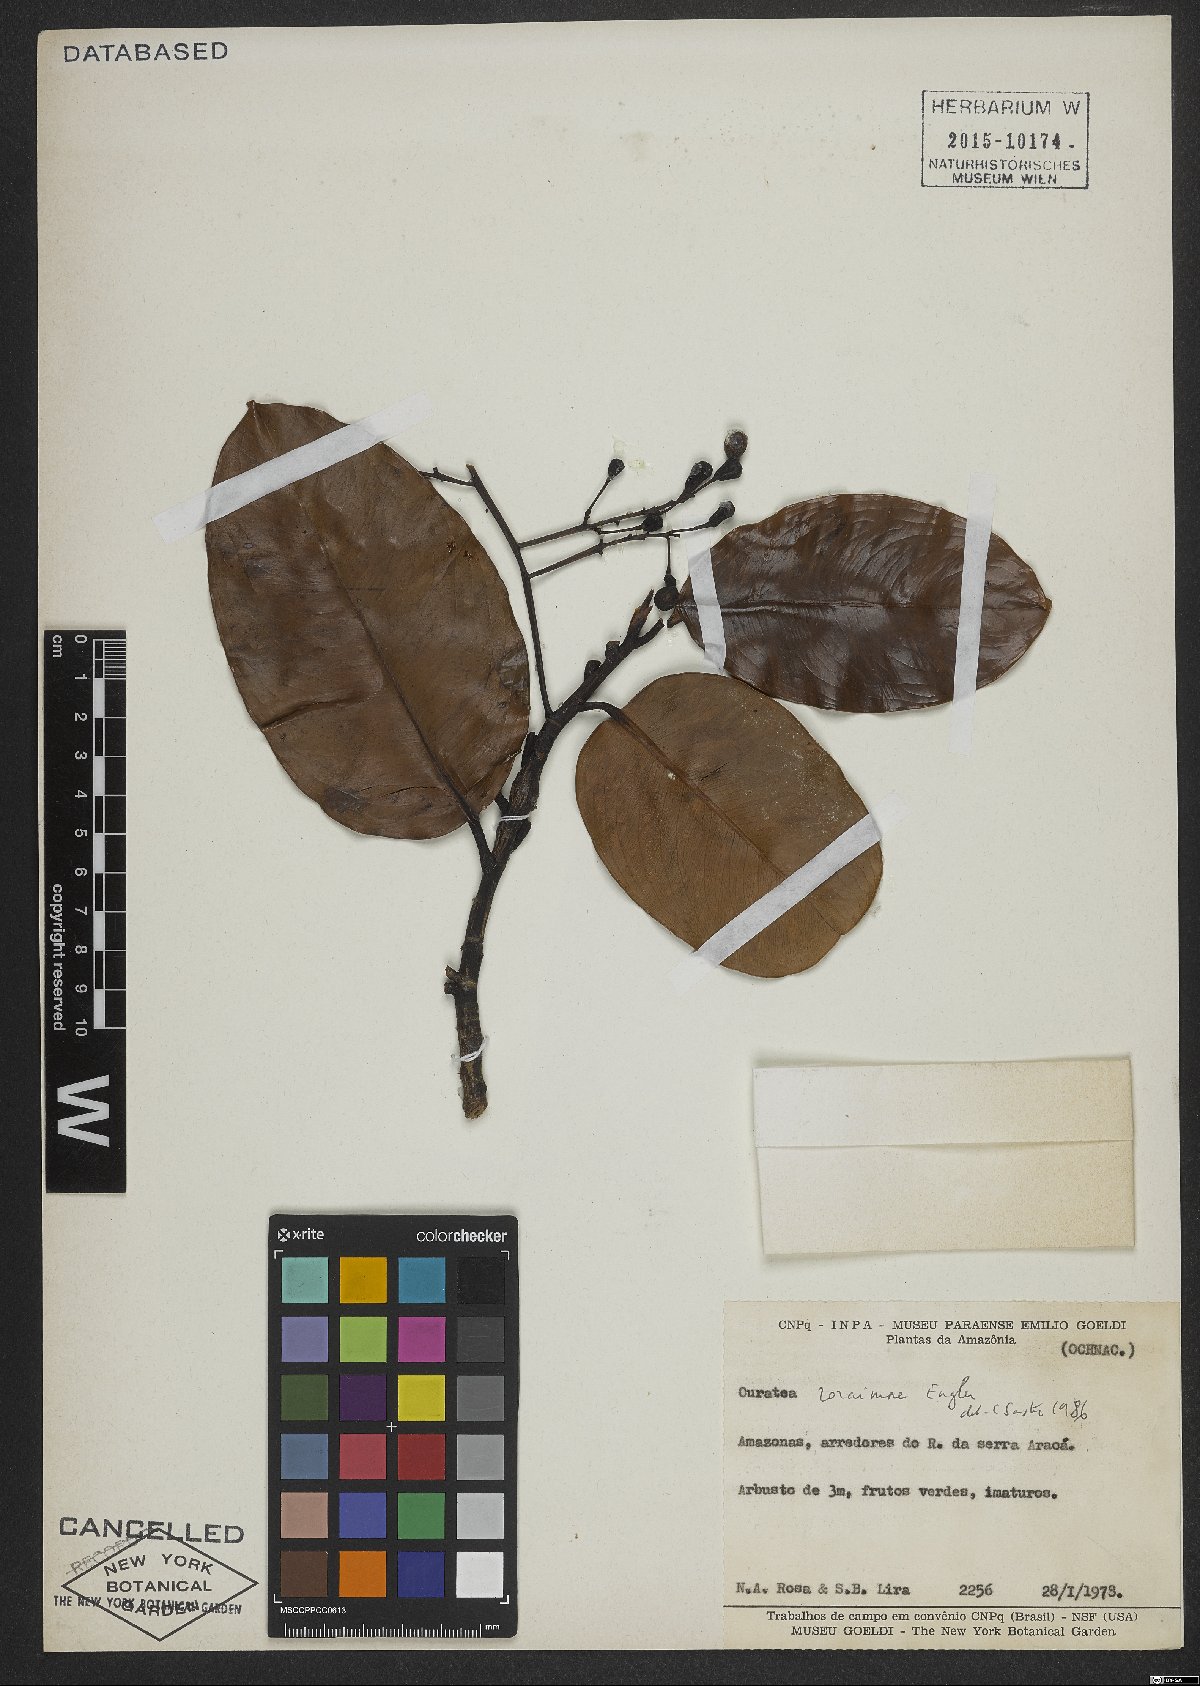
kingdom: Plantae
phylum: Tracheophyta
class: Magnoliopsida
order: Malpighiales
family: Ochnaceae
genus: Ouratea
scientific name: Ouratea roraimae
